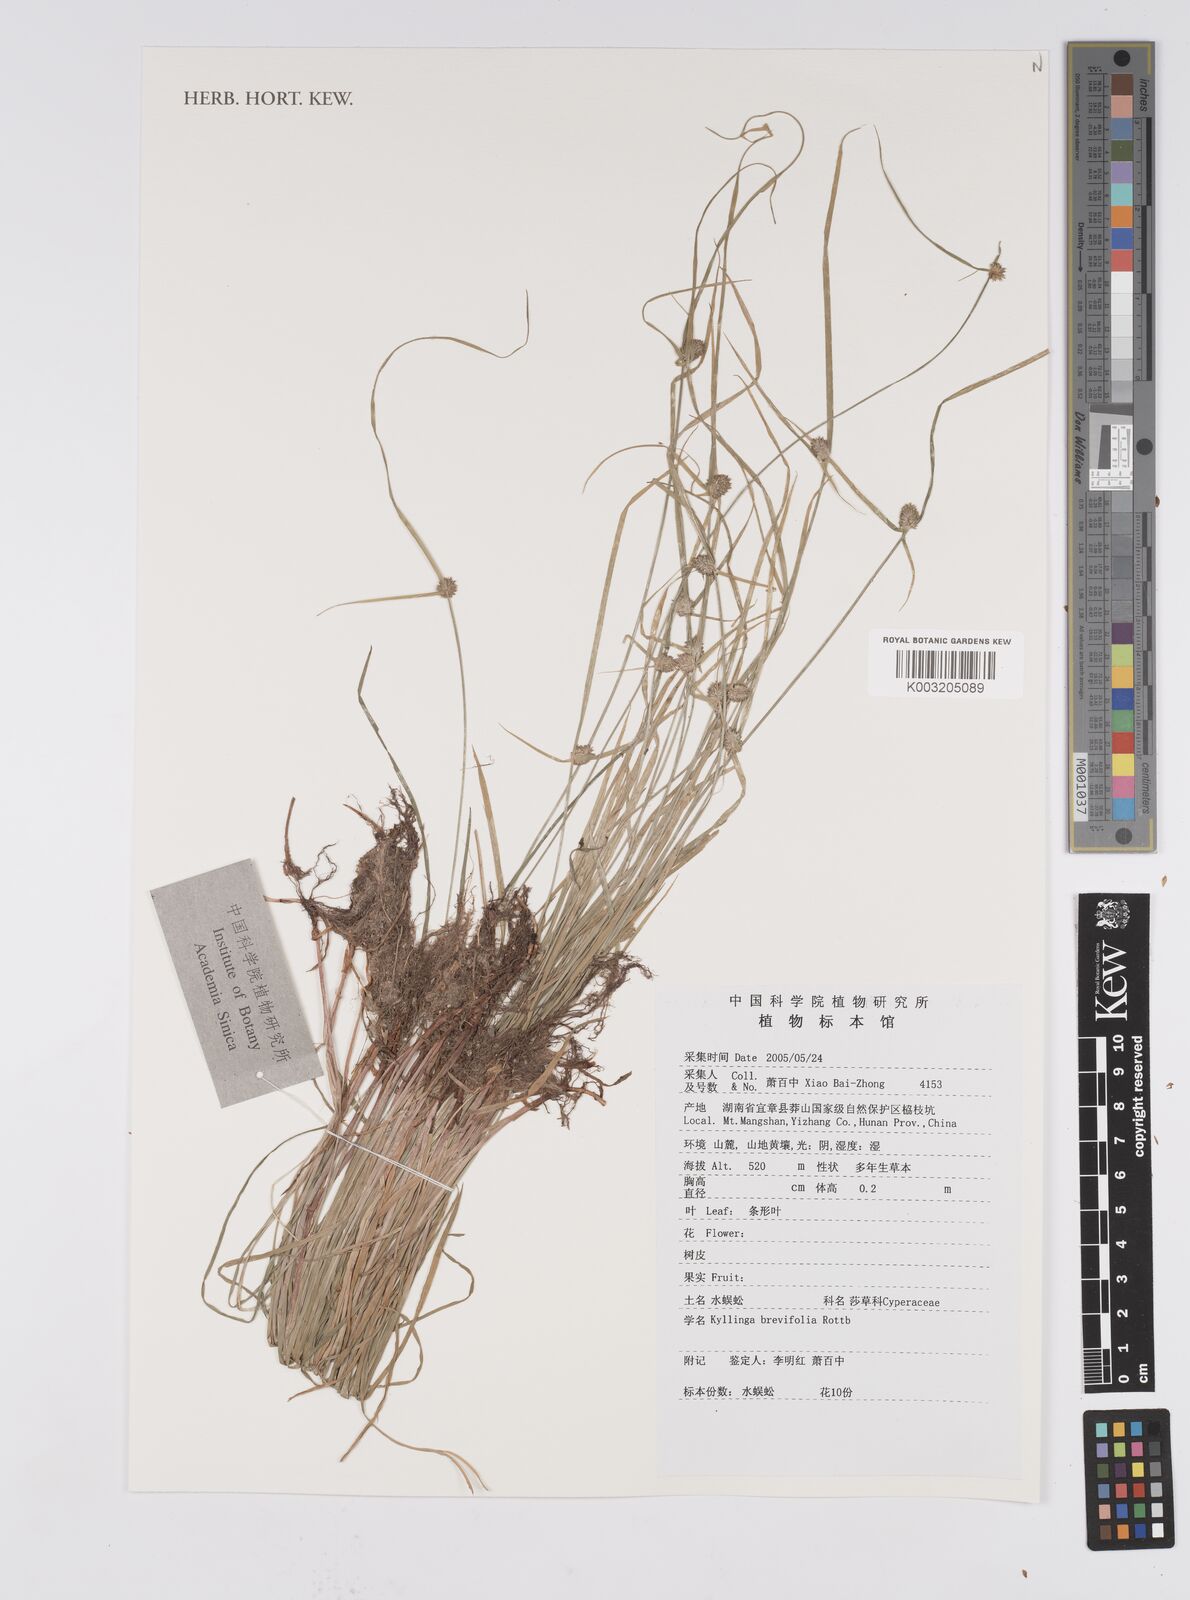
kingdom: Plantae
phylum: Tracheophyta
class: Liliopsida
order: Poales
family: Cyperaceae
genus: Cyperus
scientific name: Cyperus brevifolius
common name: Globe kyllinga
